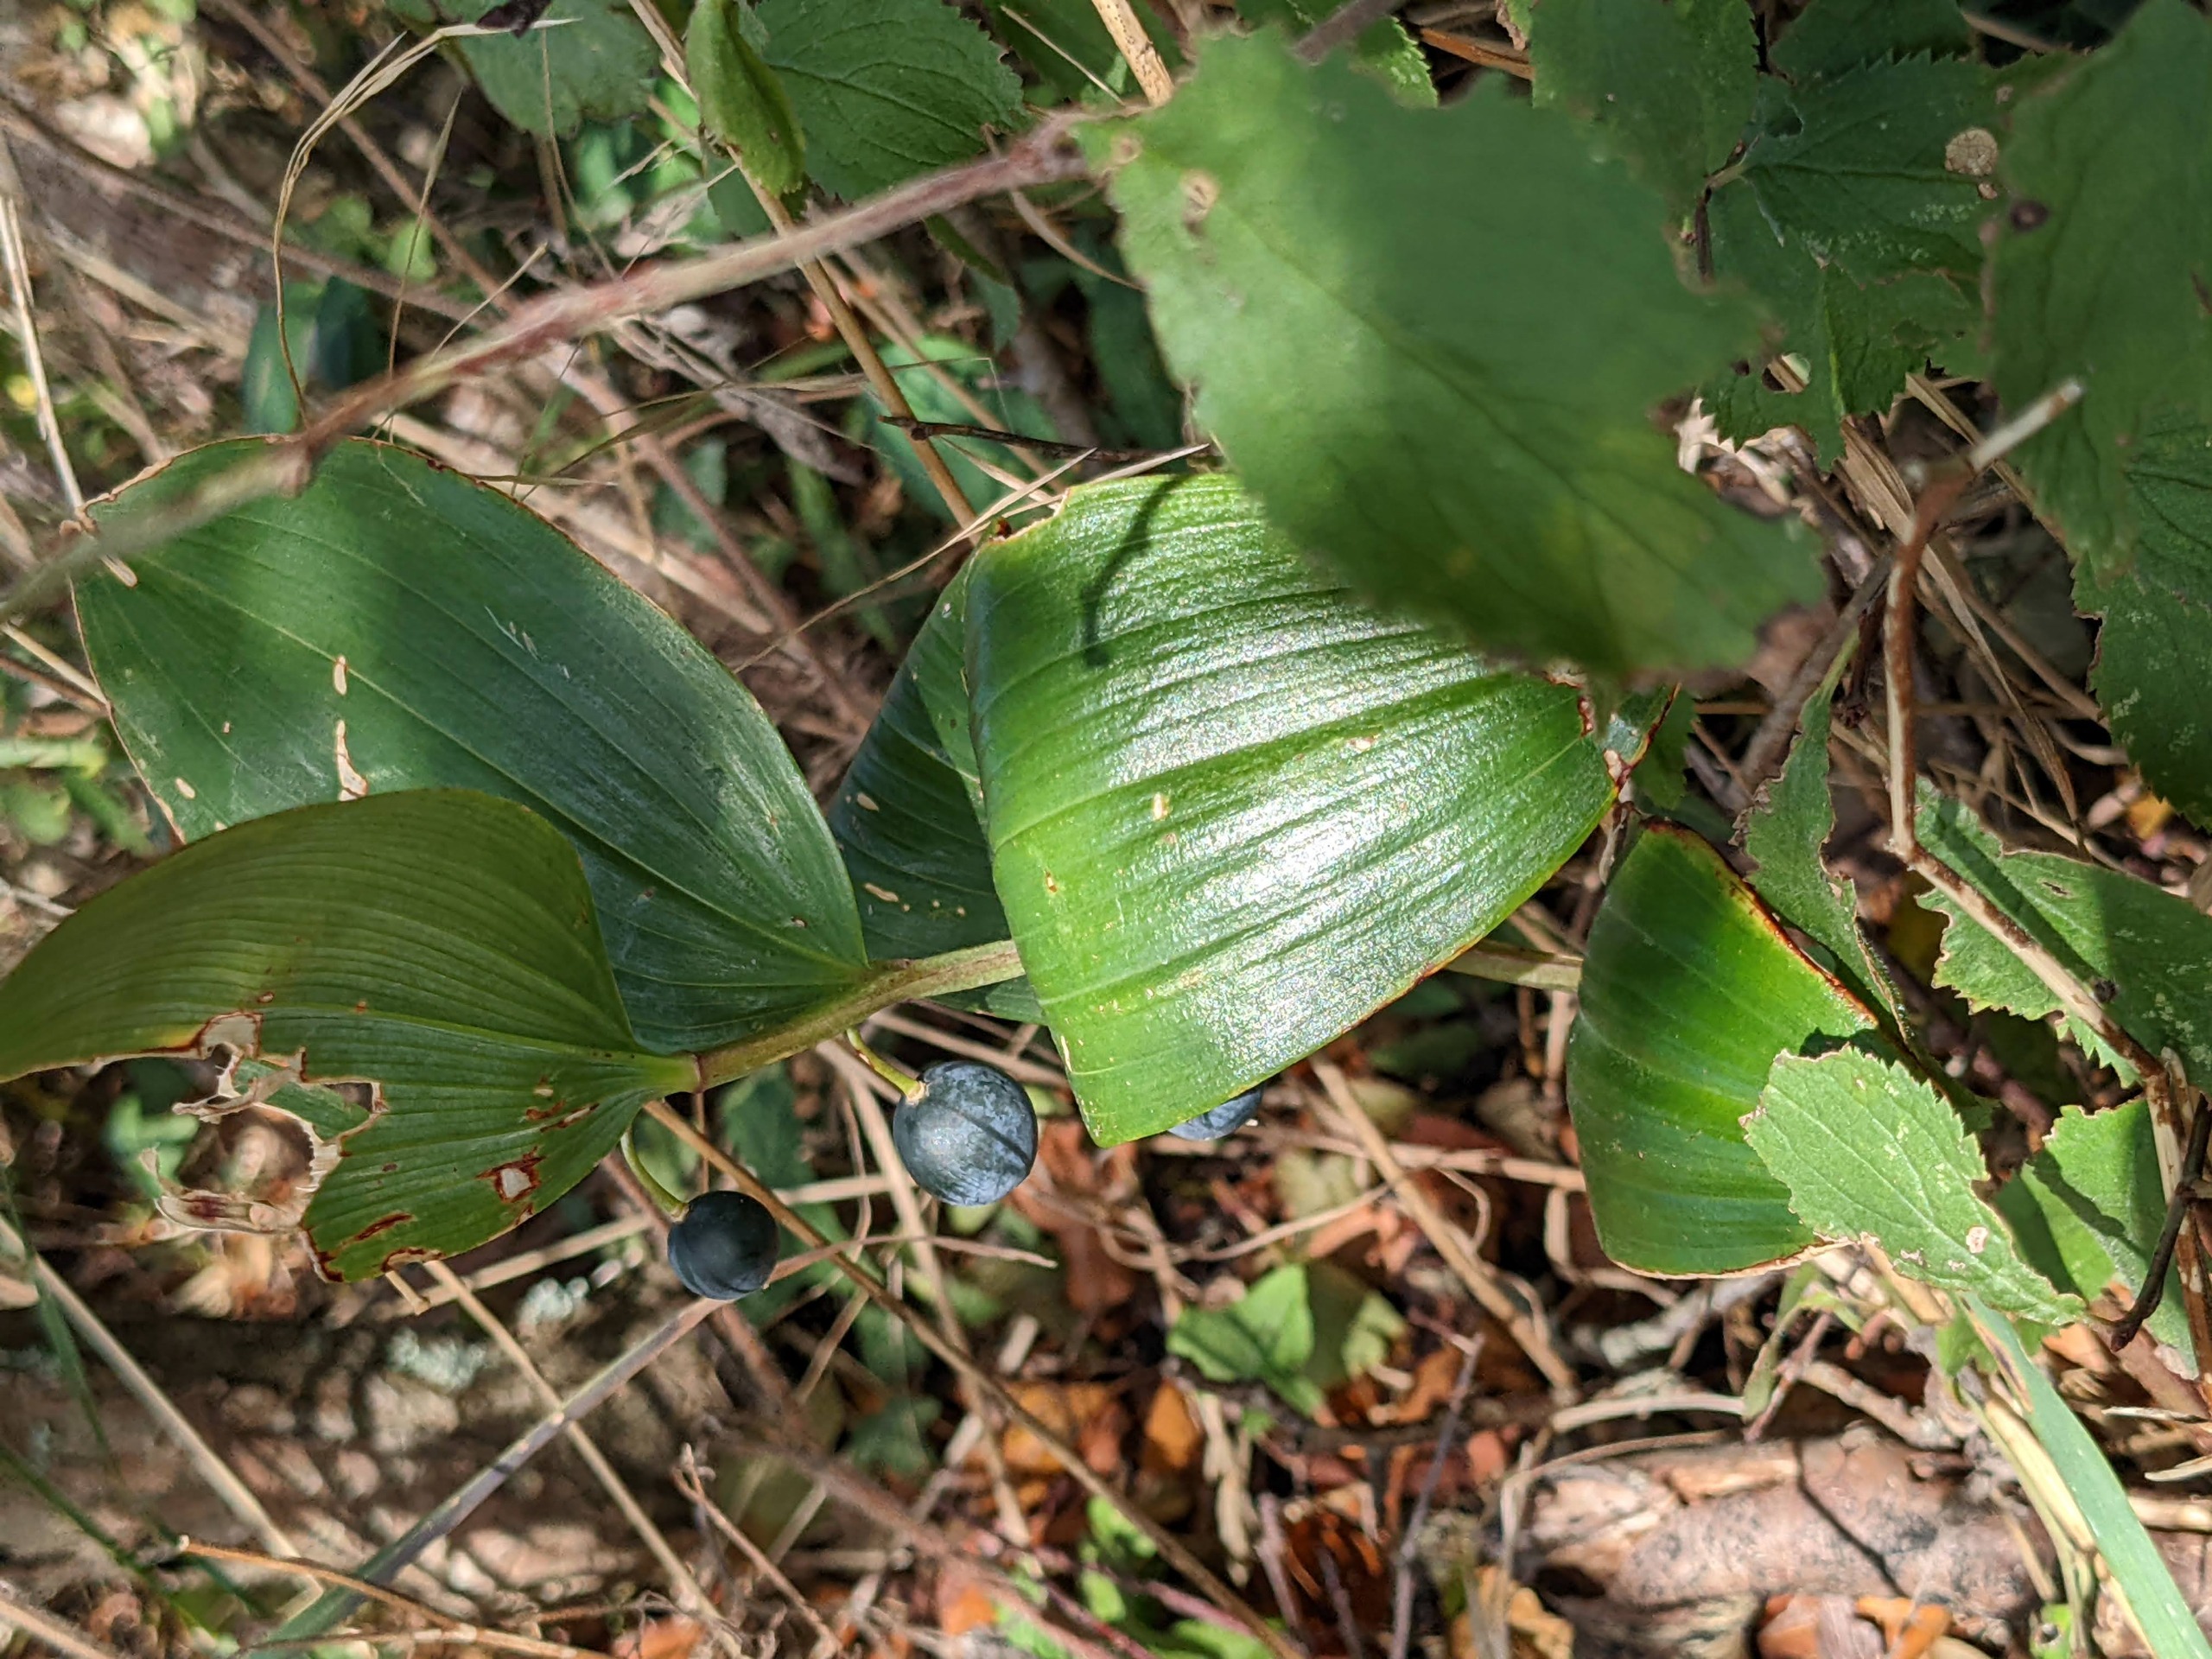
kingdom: Plantae
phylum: Tracheophyta
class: Liliopsida
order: Asparagales
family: Asparagaceae
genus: Polygonatum
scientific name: Polygonatum odoratum
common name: Kantet konval
